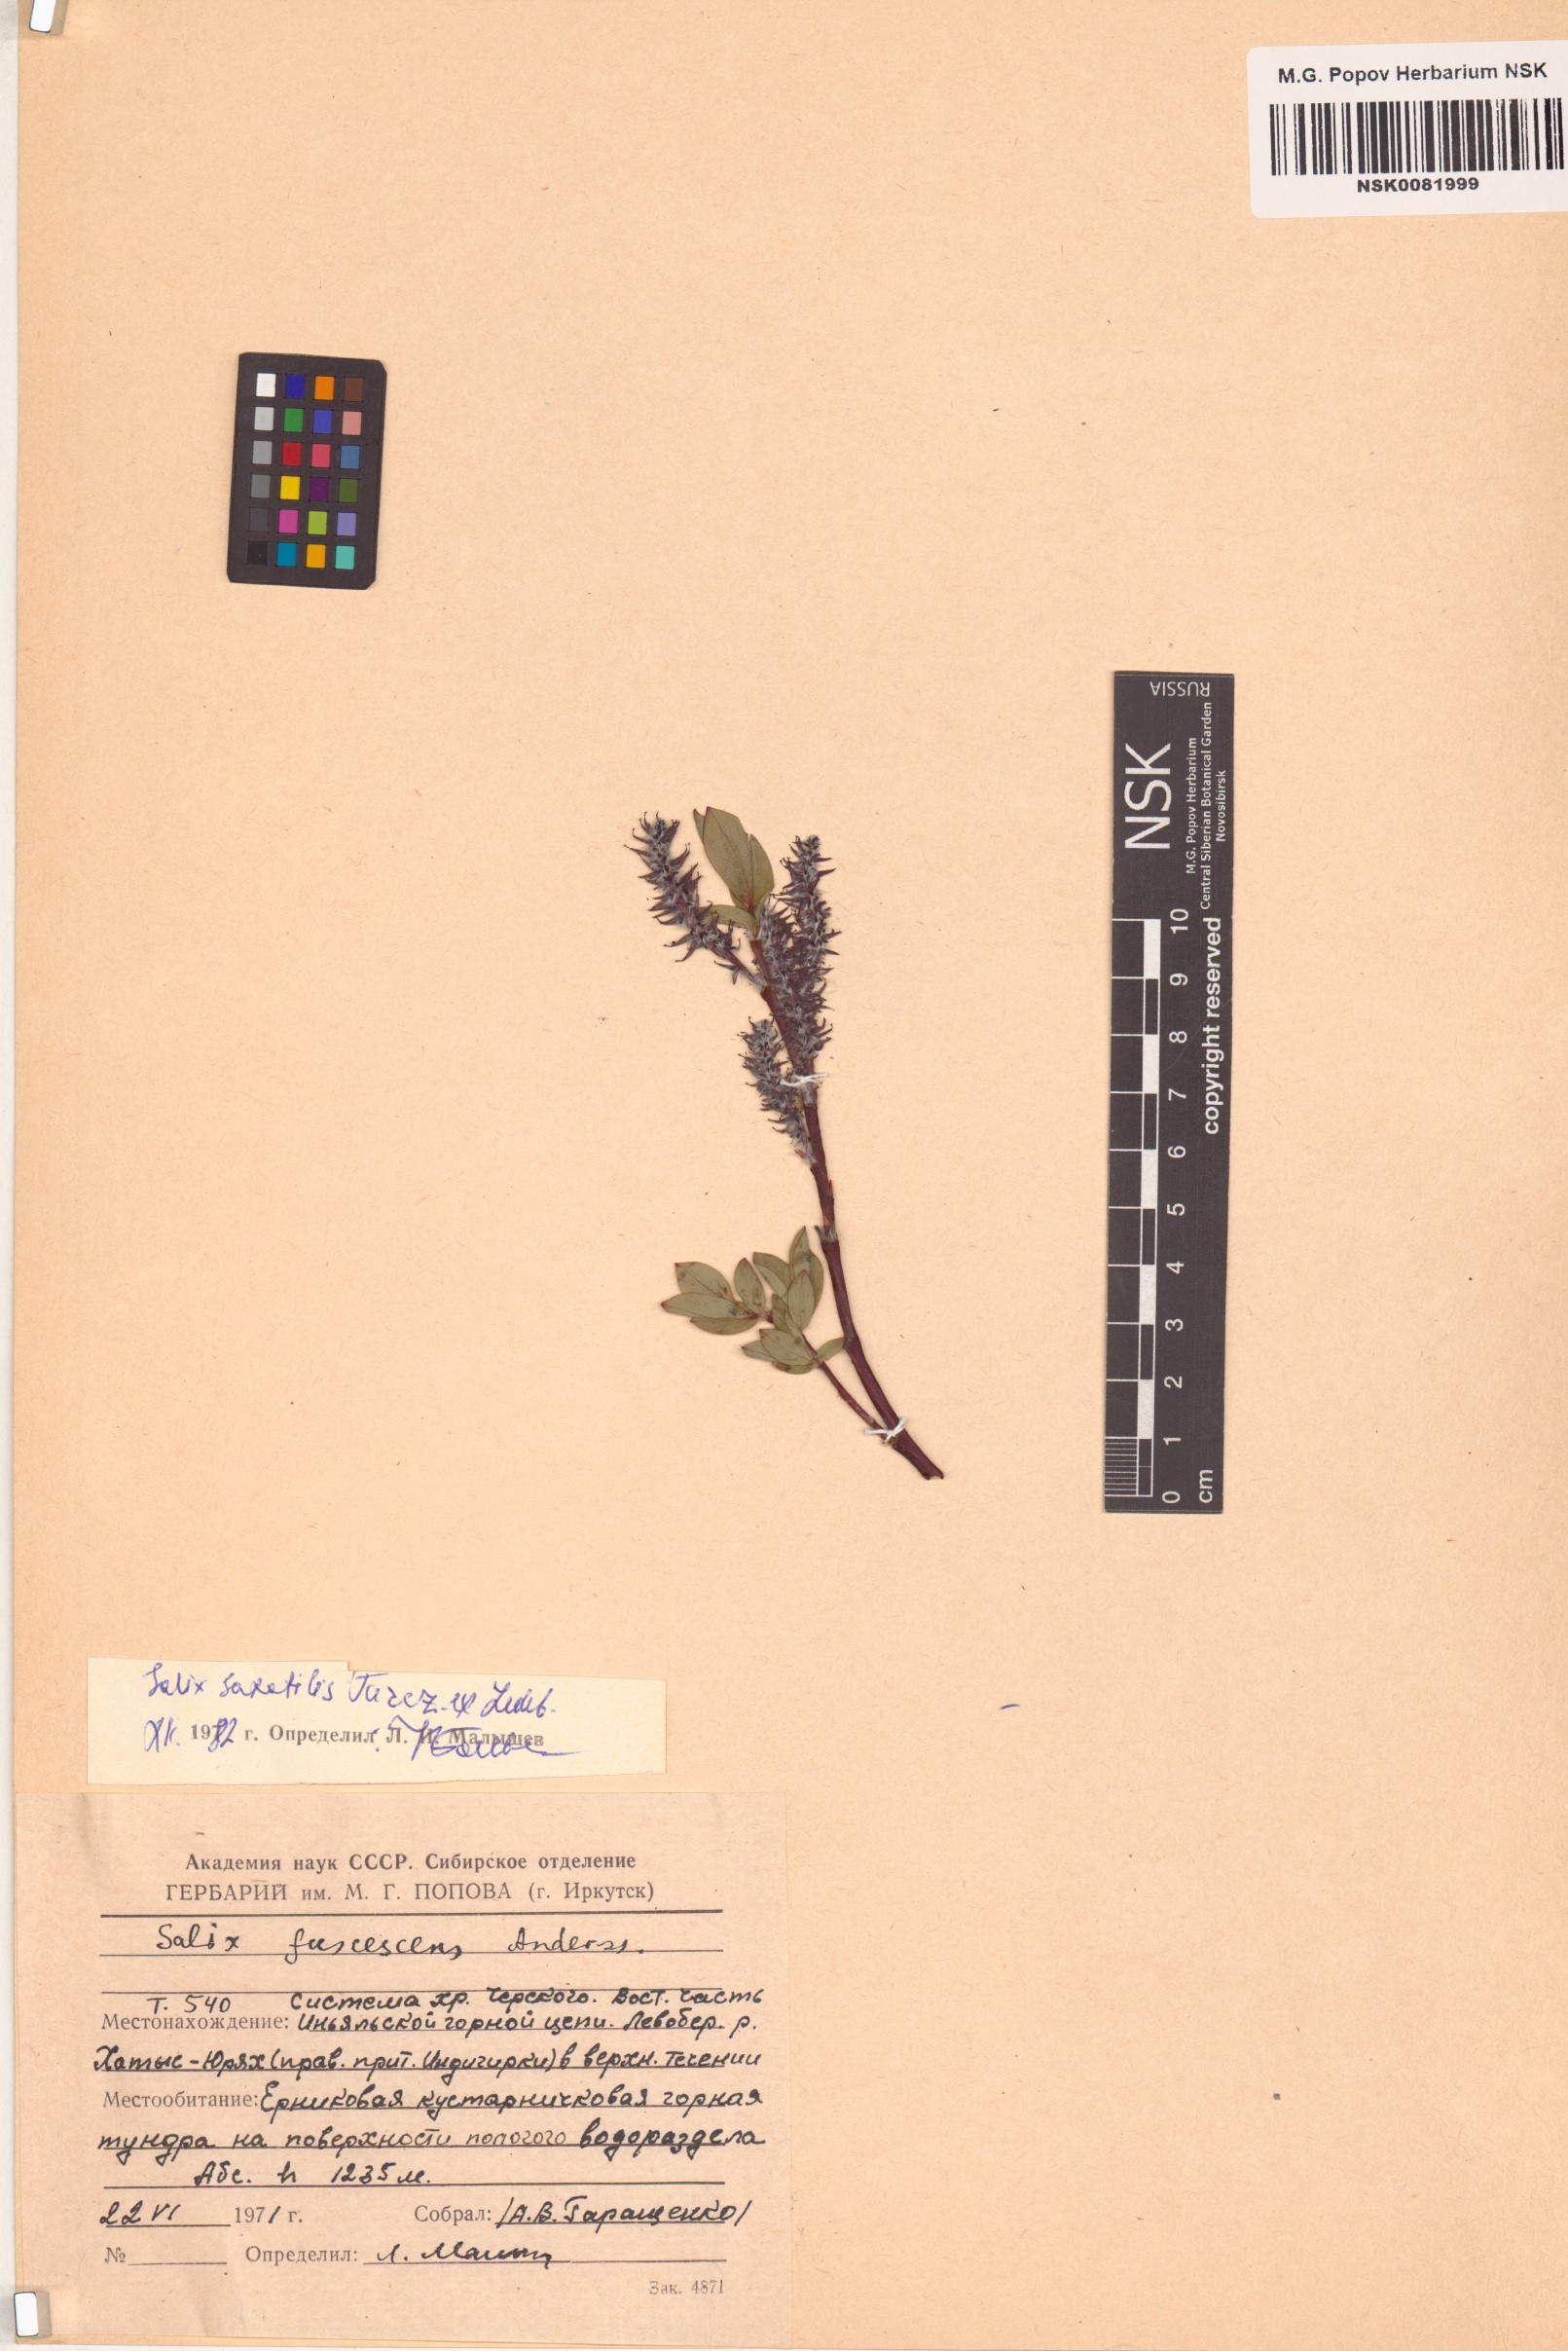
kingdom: Plantae
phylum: Tracheophyta
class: Magnoliopsida
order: Malpighiales
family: Salicaceae
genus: Salix
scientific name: Salix saxatilis
